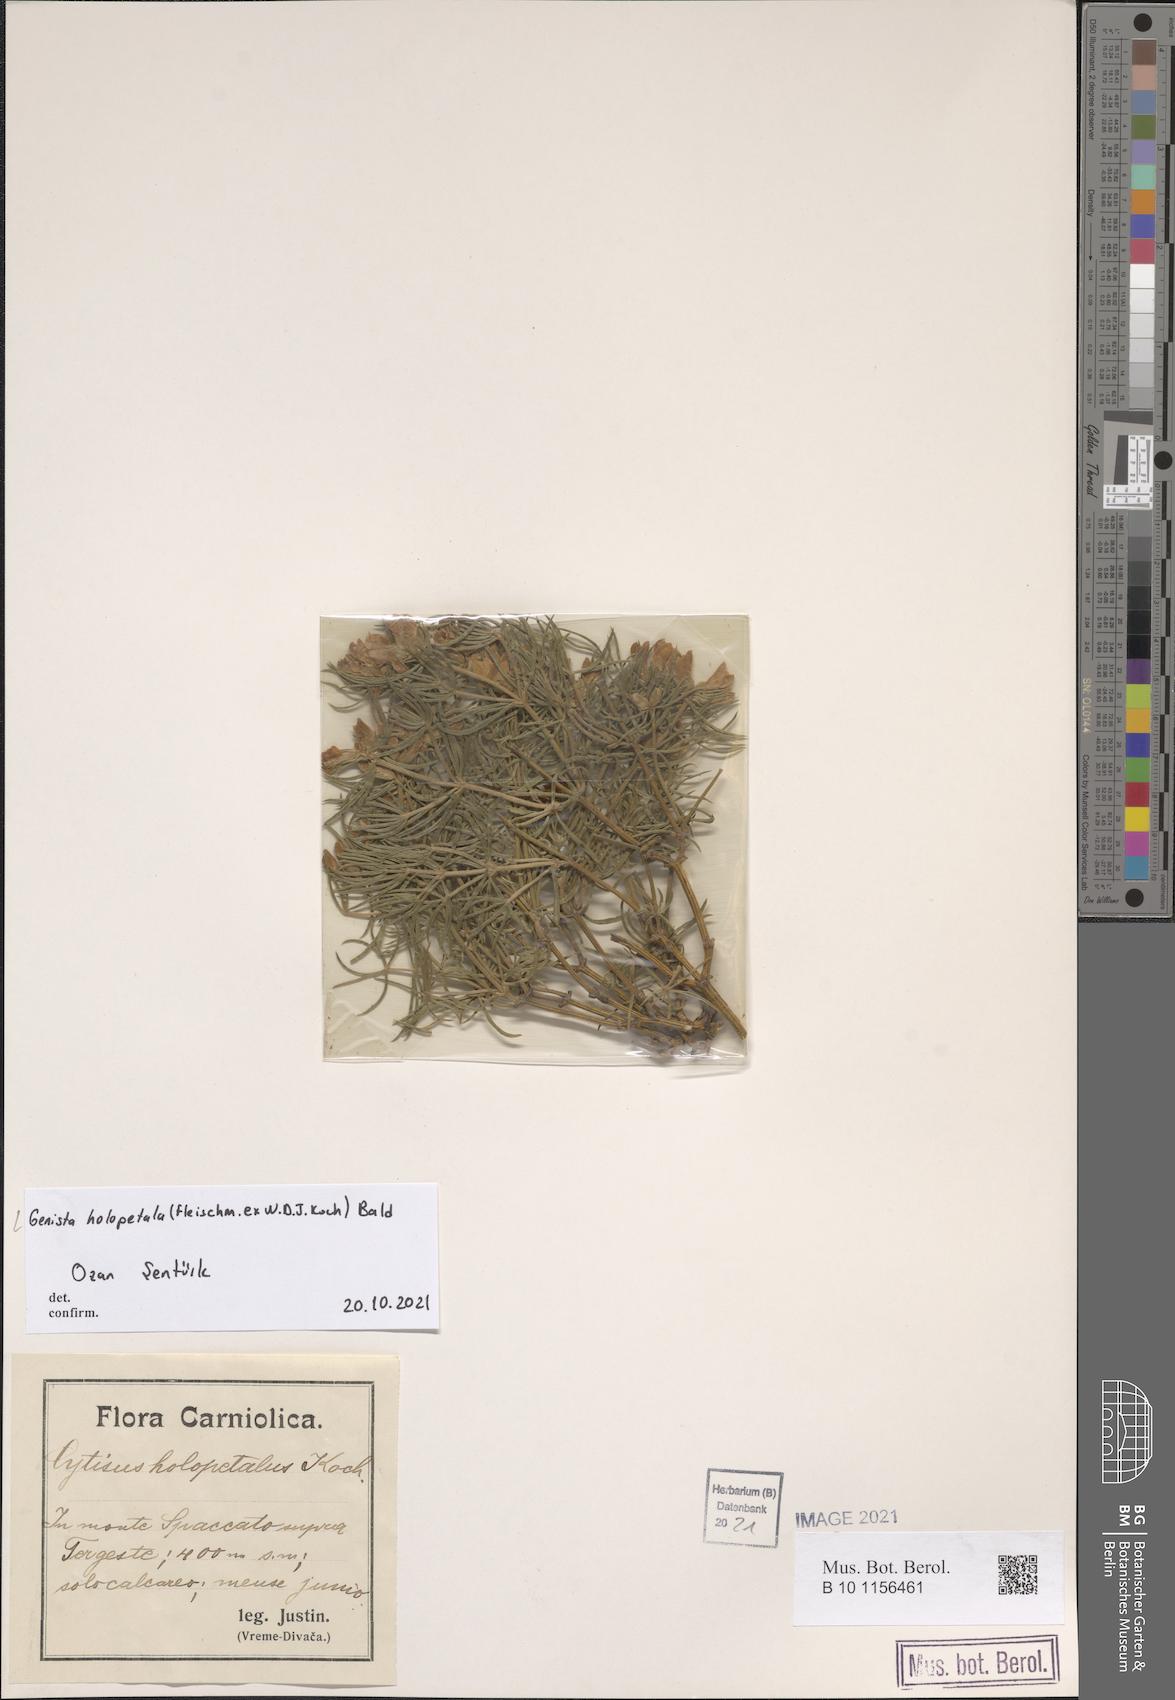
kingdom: Plantae
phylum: Tracheophyta
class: Magnoliopsida
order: Fabales
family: Fabaceae
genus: Genista
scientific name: Genista holopetala
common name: Entire-petalled gorse
